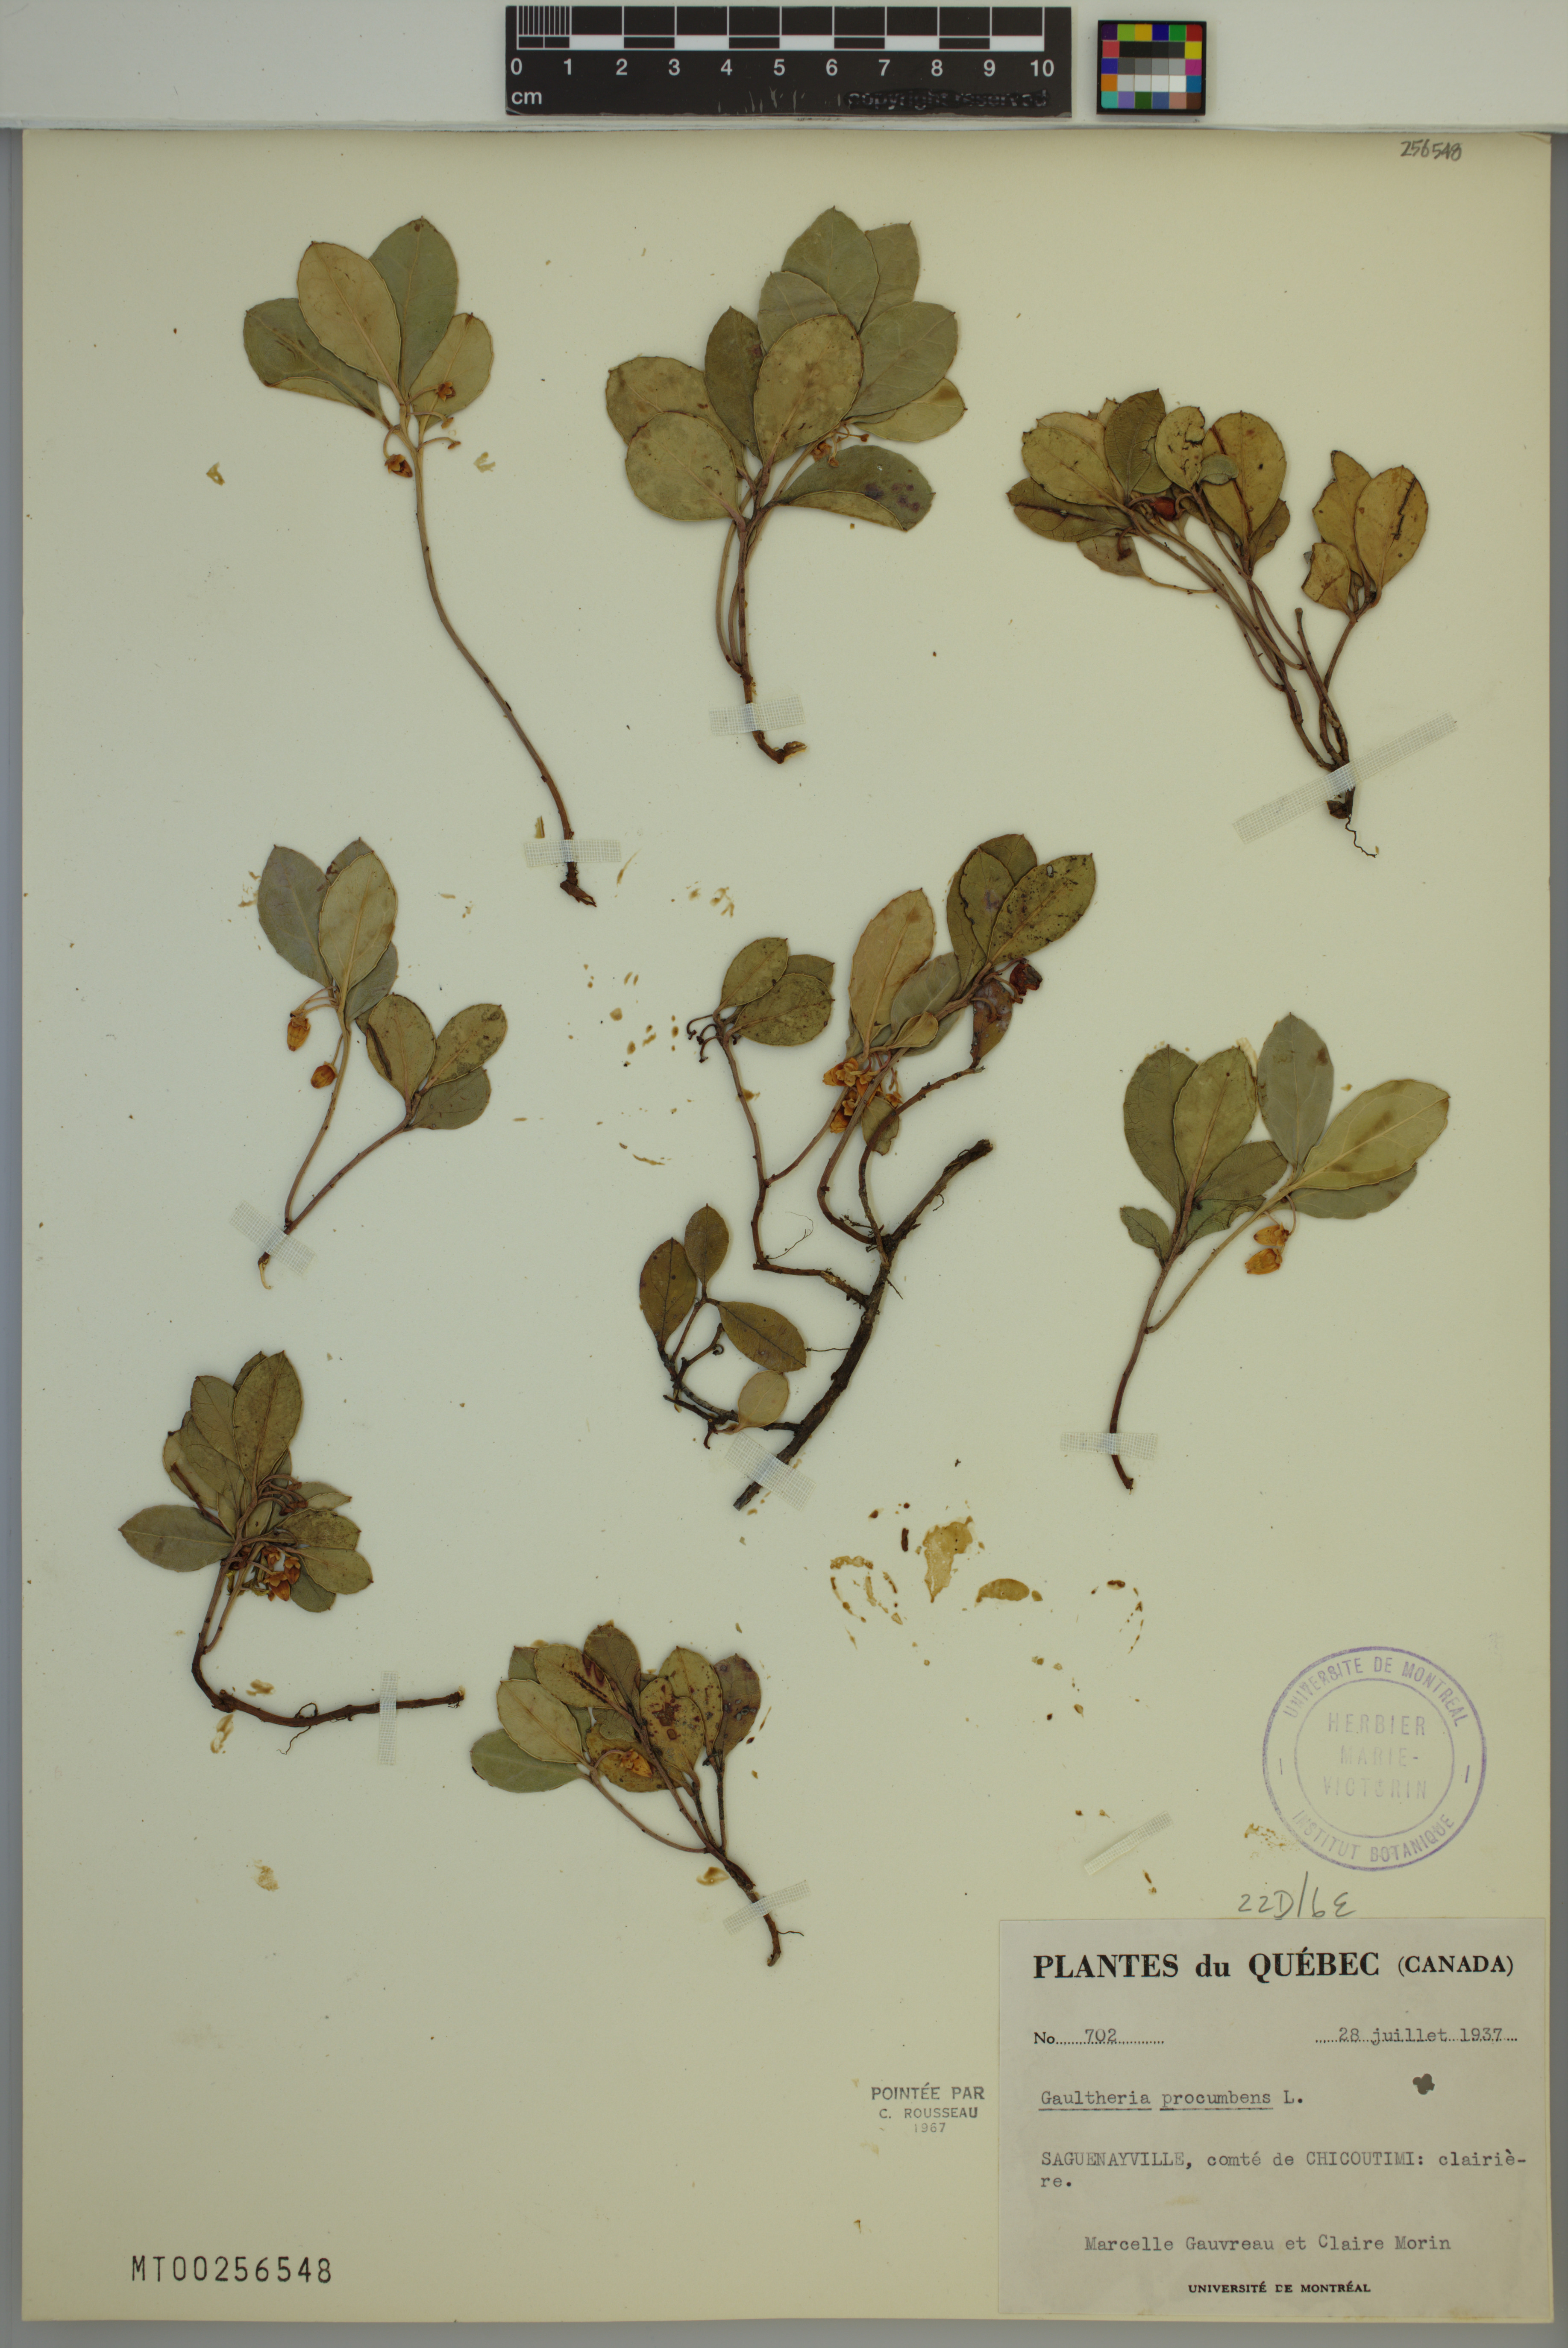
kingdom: Plantae
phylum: Tracheophyta
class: Magnoliopsida
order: Ericales
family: Ericaceae
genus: Gaultheria
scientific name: Gaultheria procumbens
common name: Checkerberry
